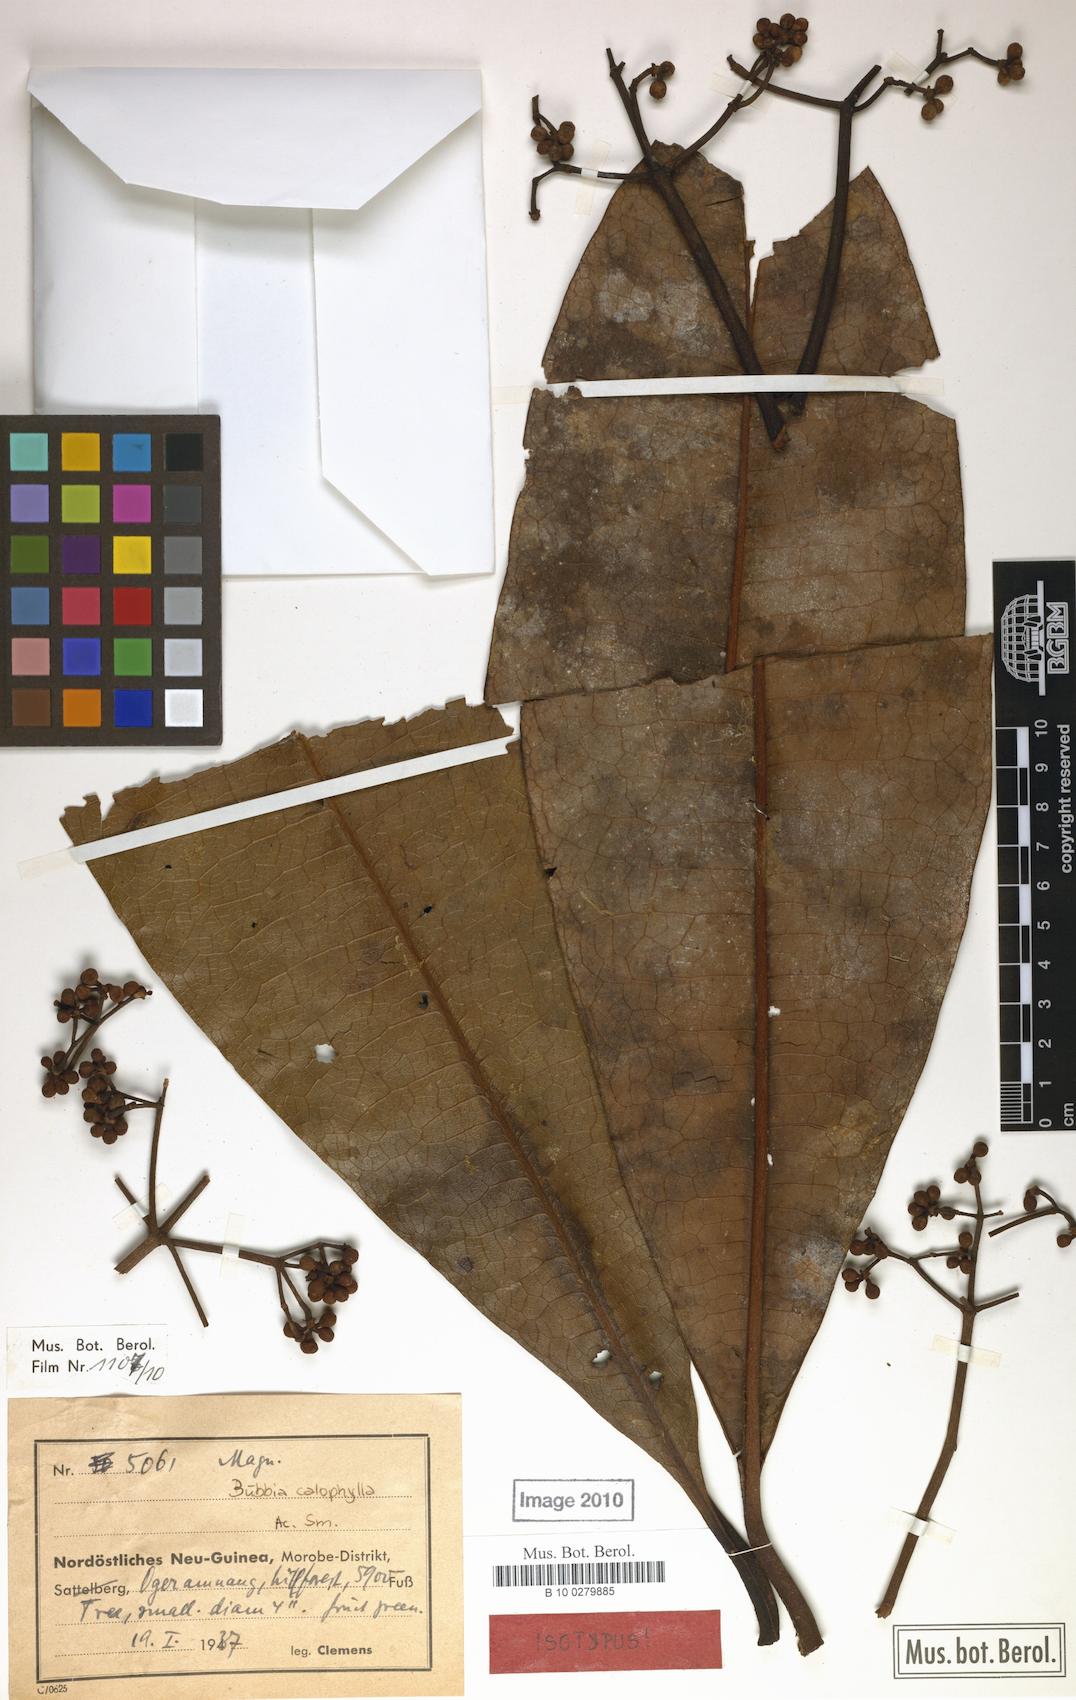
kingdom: Plantae
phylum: Tracheophyta
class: Magnoliopsida
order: Canellales
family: Winteraceae
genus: Zygogynum
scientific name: Zygogynum calophyllum
